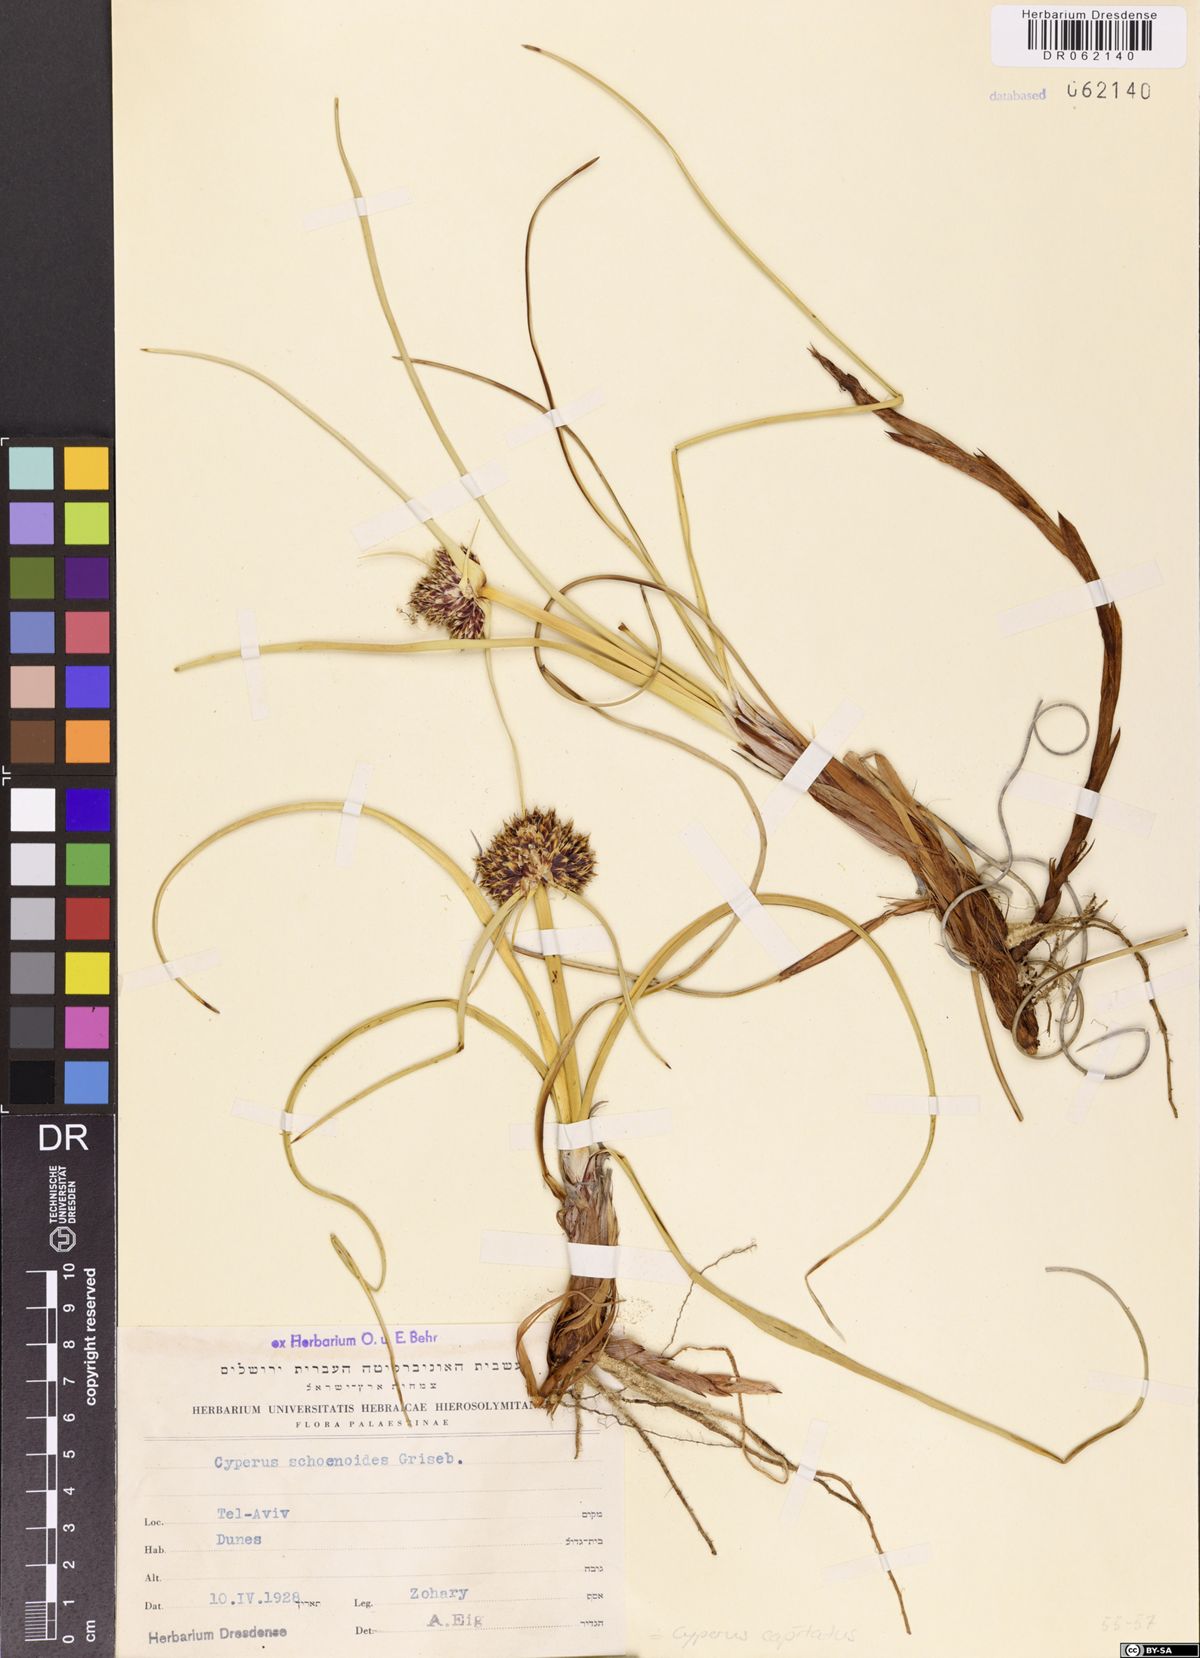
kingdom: Plantae
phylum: Tracheophyta
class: Liliopsida
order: Poales
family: Cyperaceae
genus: Cyperus
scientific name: Cyperus capitatus
